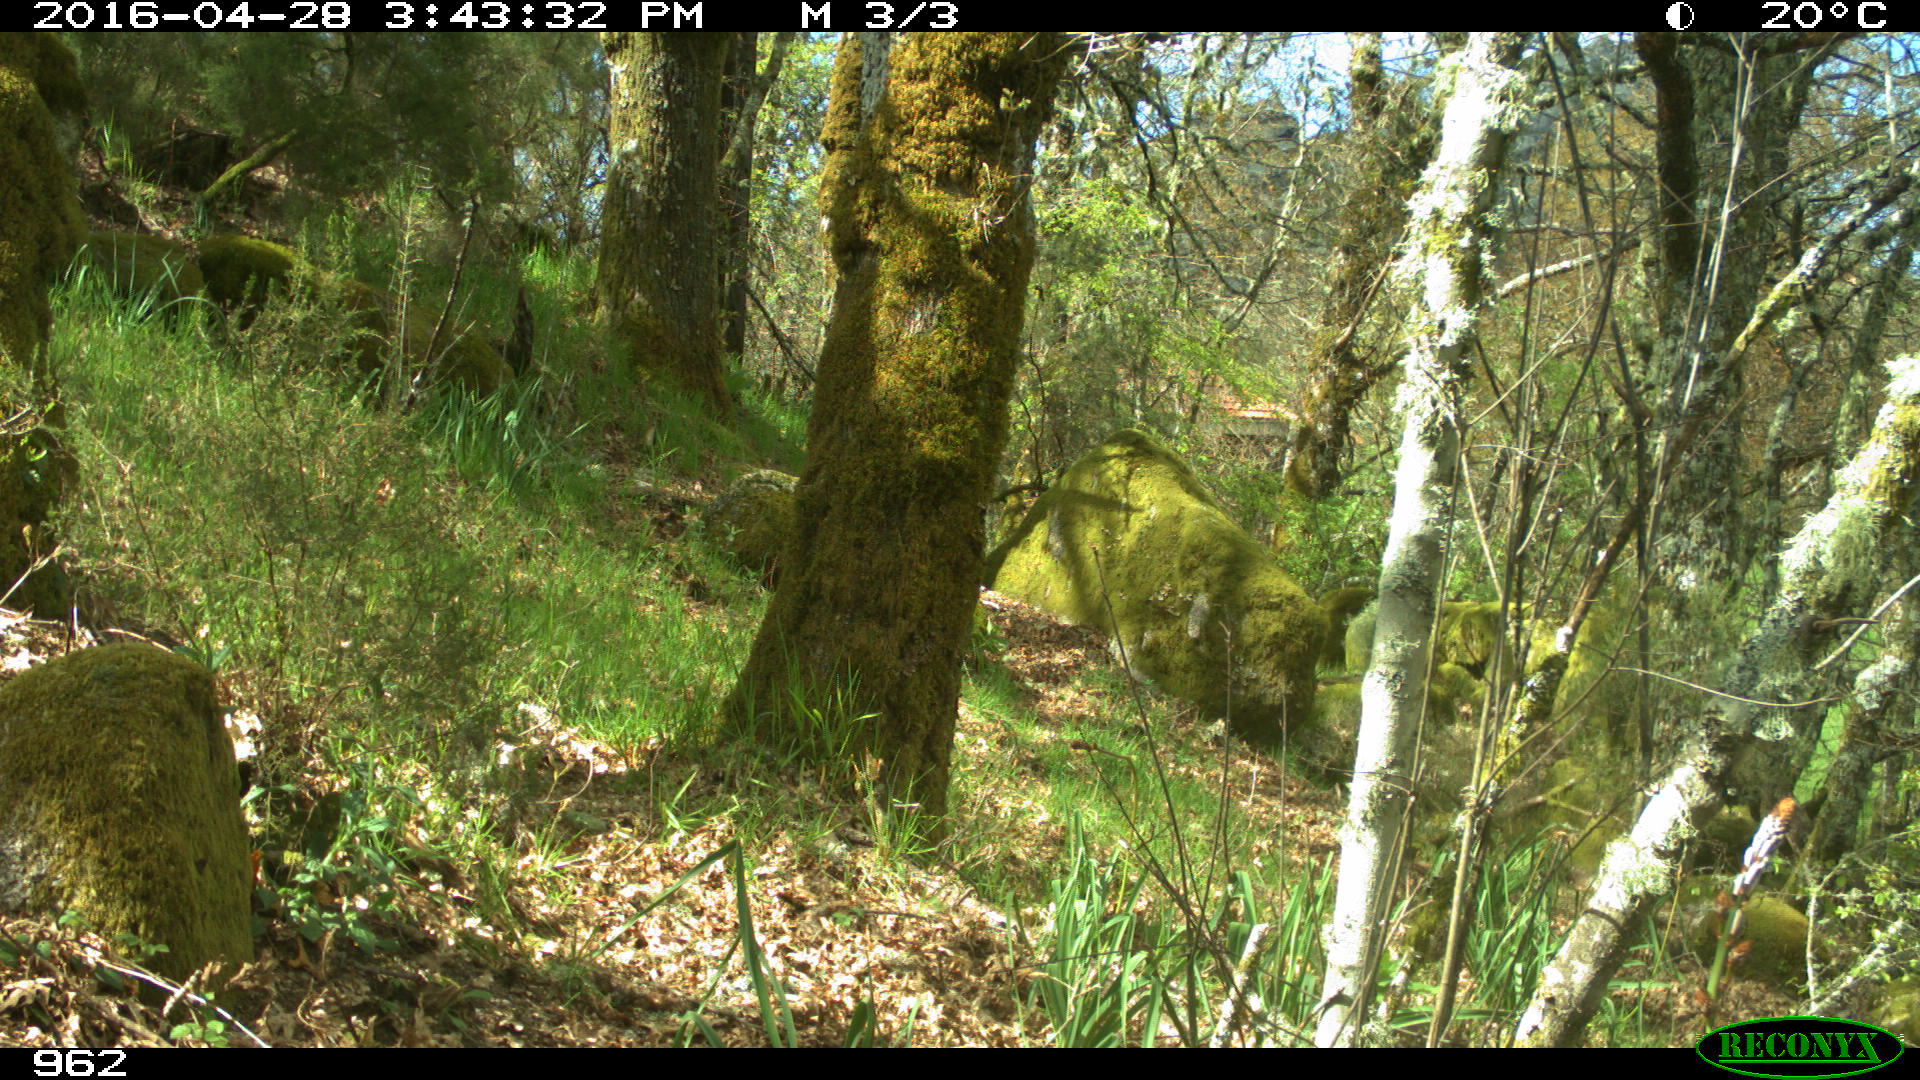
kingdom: Animalia
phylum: Chordata
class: Mammalia
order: Artiodactyla
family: Cervidae
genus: Capreolus
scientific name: Capreolus capreolus
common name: Western roe deer
